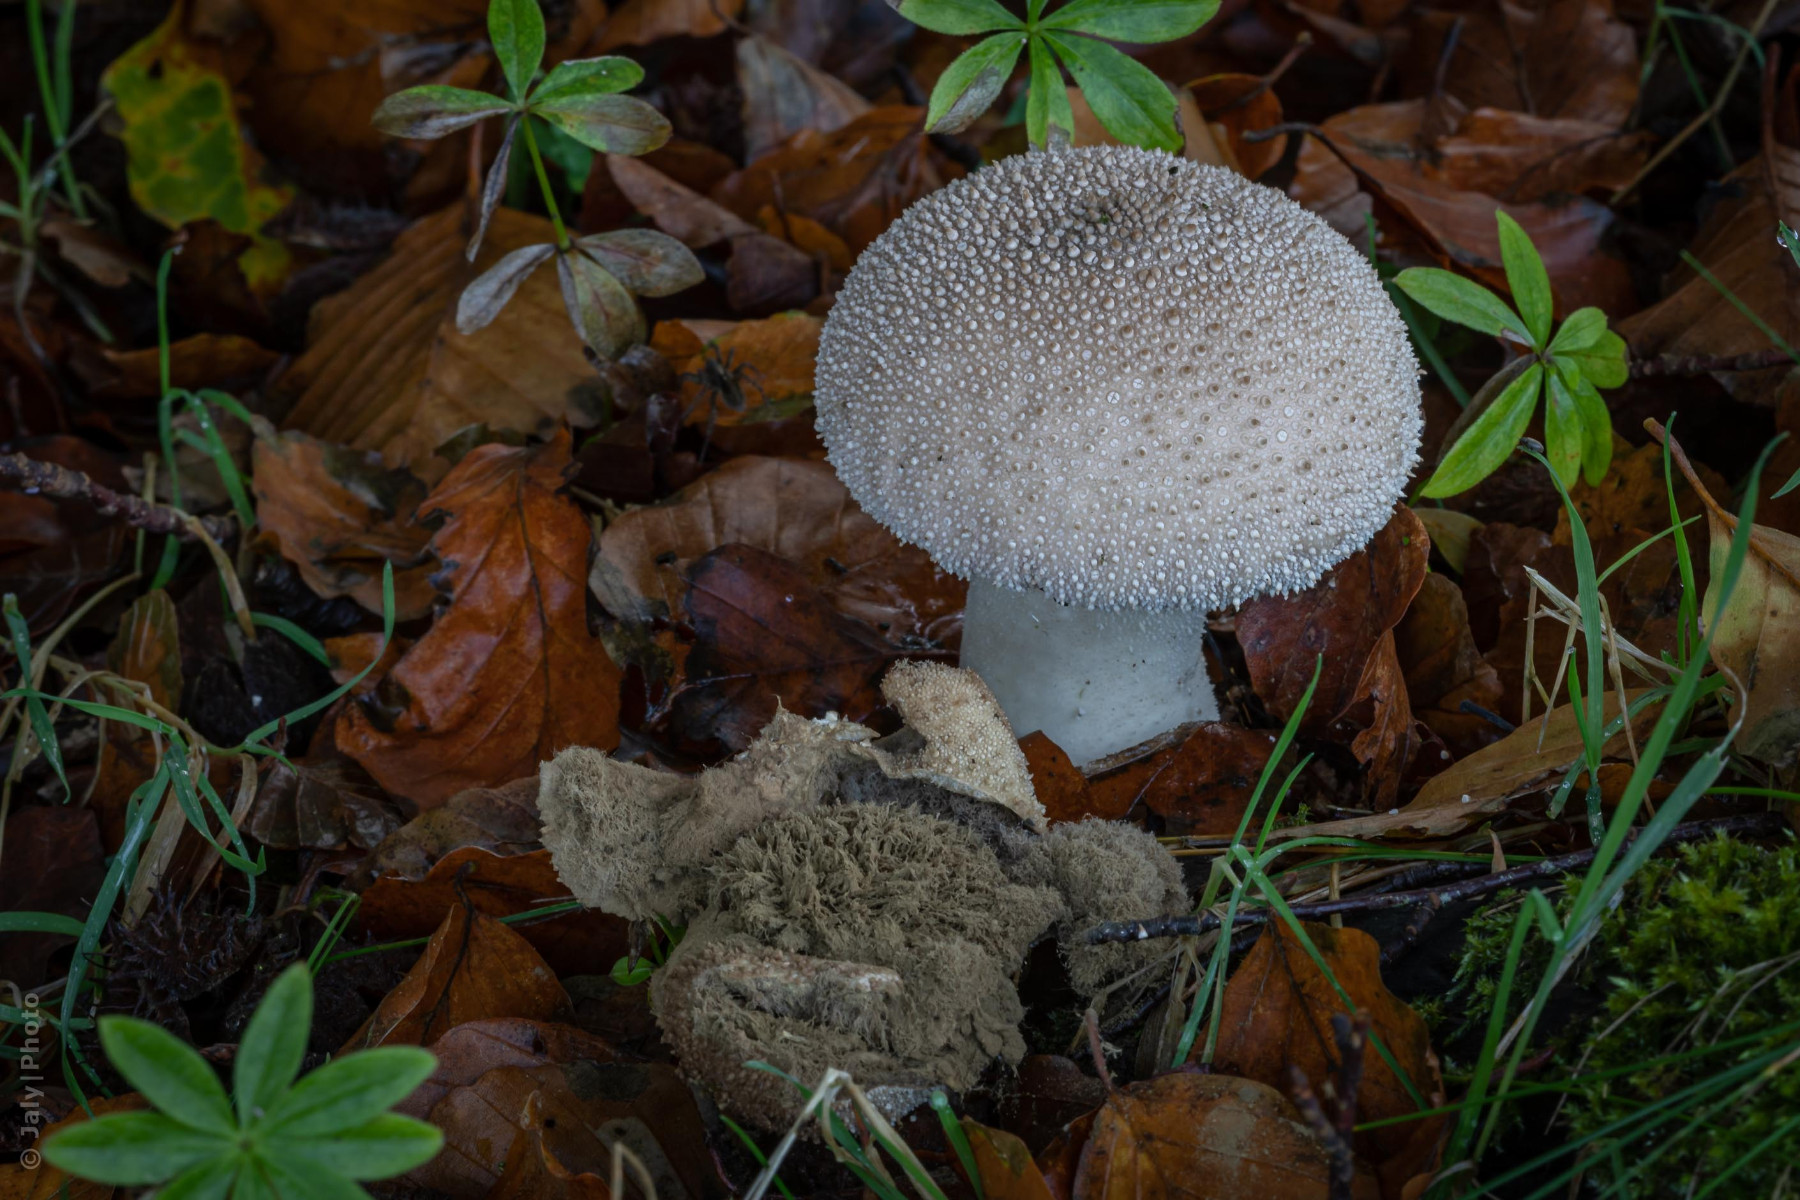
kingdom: Fungi
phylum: Basidiomycota
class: Agaricomycetes
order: Agaricales
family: Lycoperdaceae
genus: Lycoperdon
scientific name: Lycoperdon perlatum
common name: krystal-støvbold
